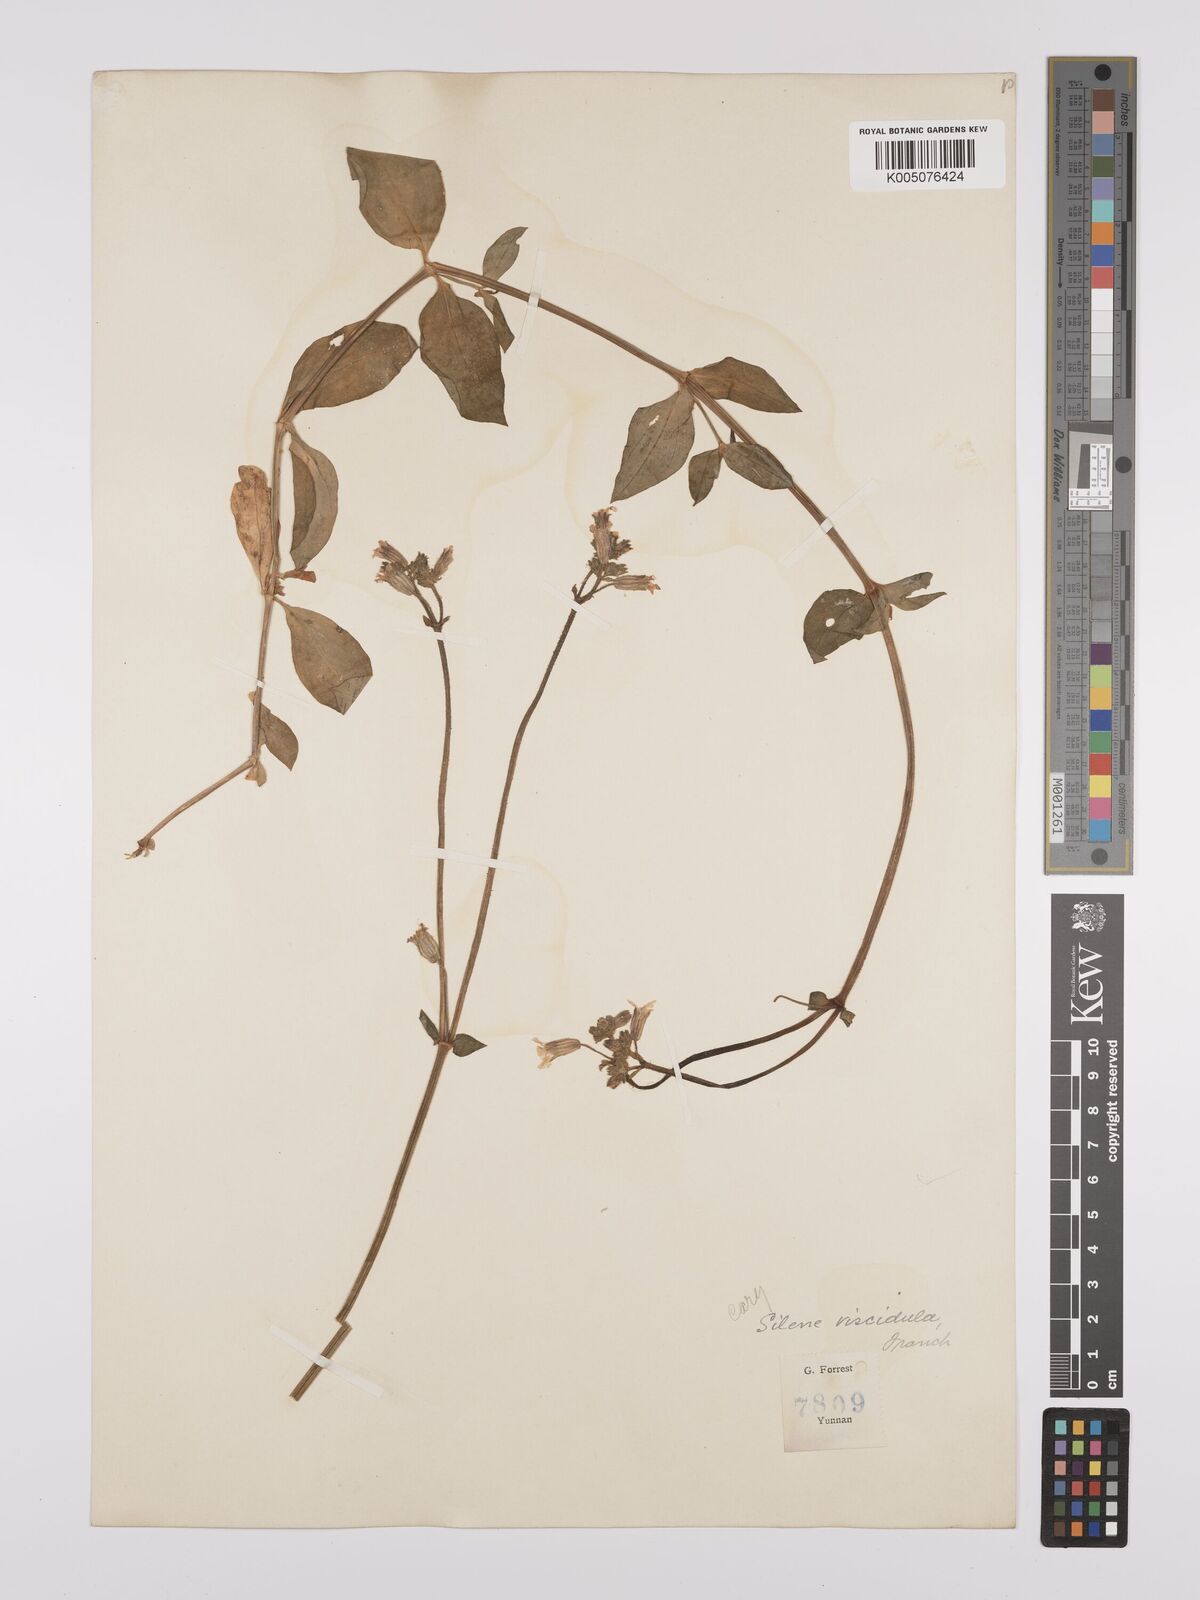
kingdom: Plantae
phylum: Tracheophyta
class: Magnoliopsida
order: Caryophyllales
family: Caryophyllaceae
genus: Silene
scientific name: Silene
